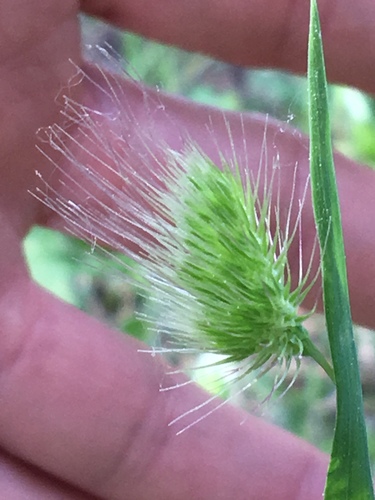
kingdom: Plantae
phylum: Tracheophyta
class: Liliopsida
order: Poales
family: Poaceae
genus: Cynosurus
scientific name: Cynosurus echinatus
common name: Rough dog's-tail
